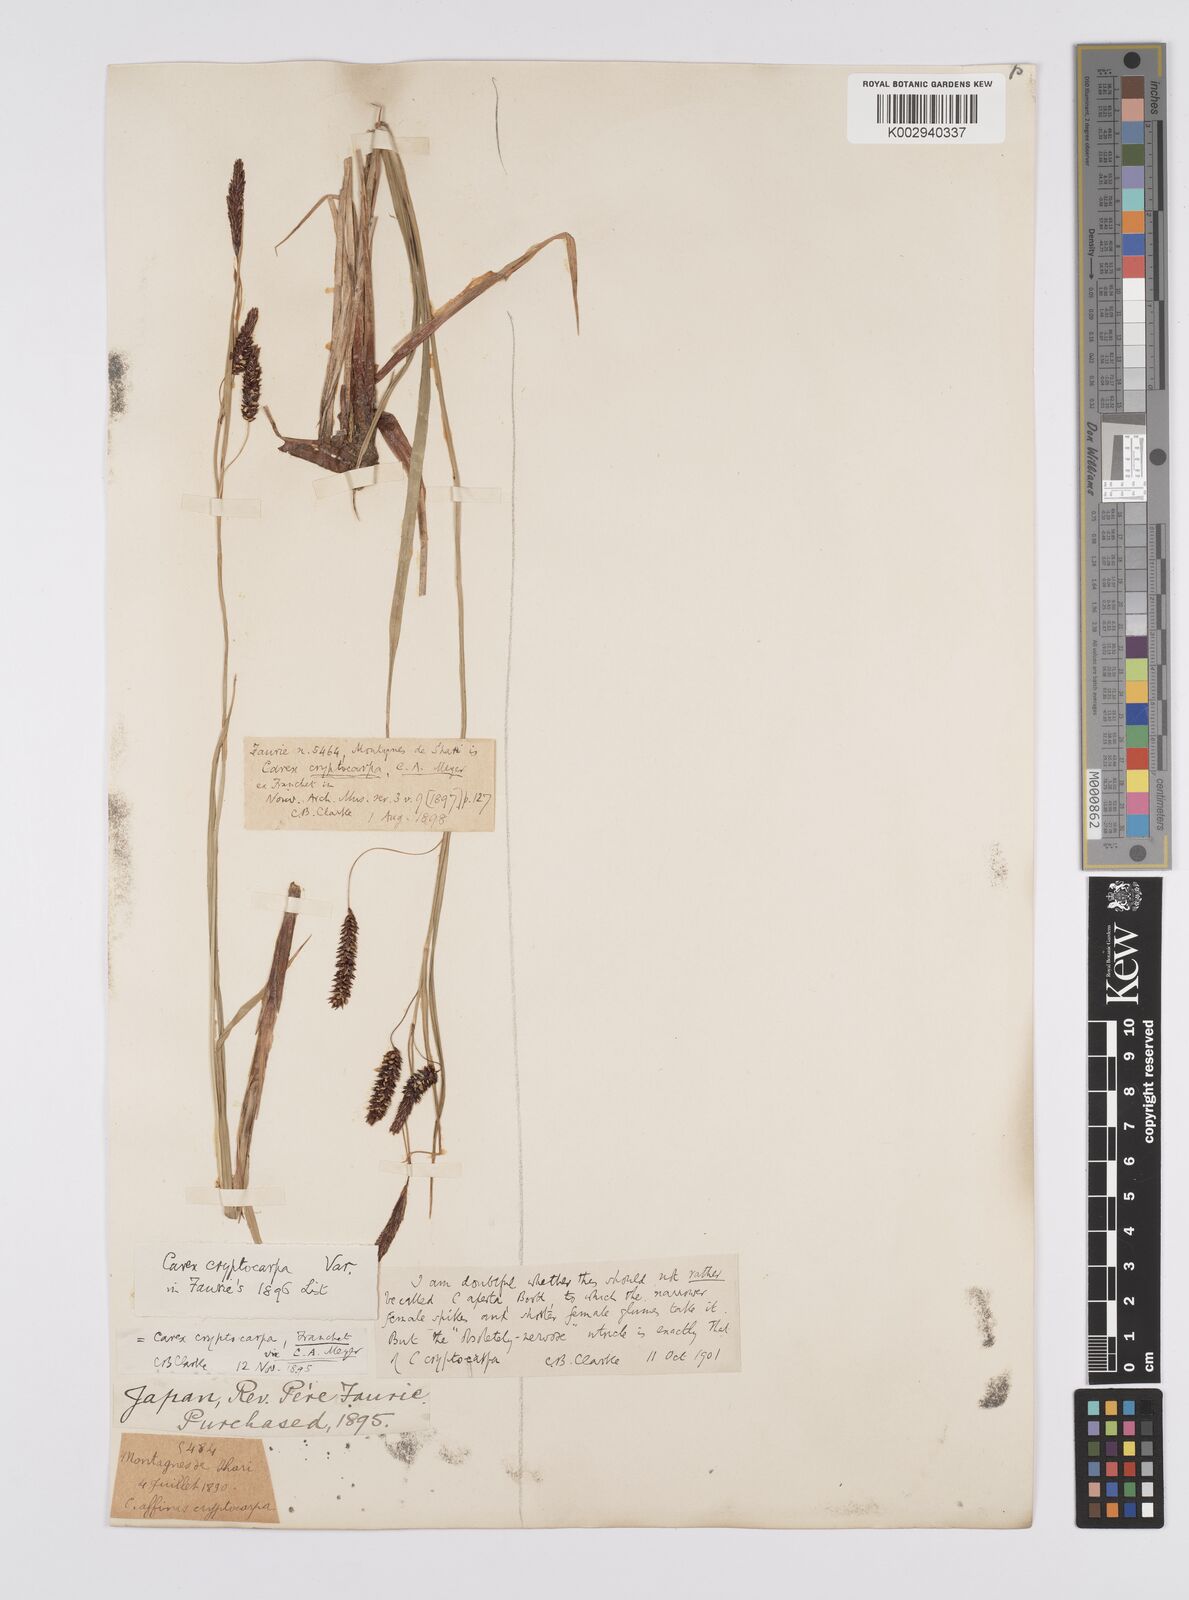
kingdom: Plantae
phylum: Tracheophyta
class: Liliopsida
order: Poales
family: Cyperaceae
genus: Carex
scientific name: Carex lyngbyei
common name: Lyngbye's sedge
